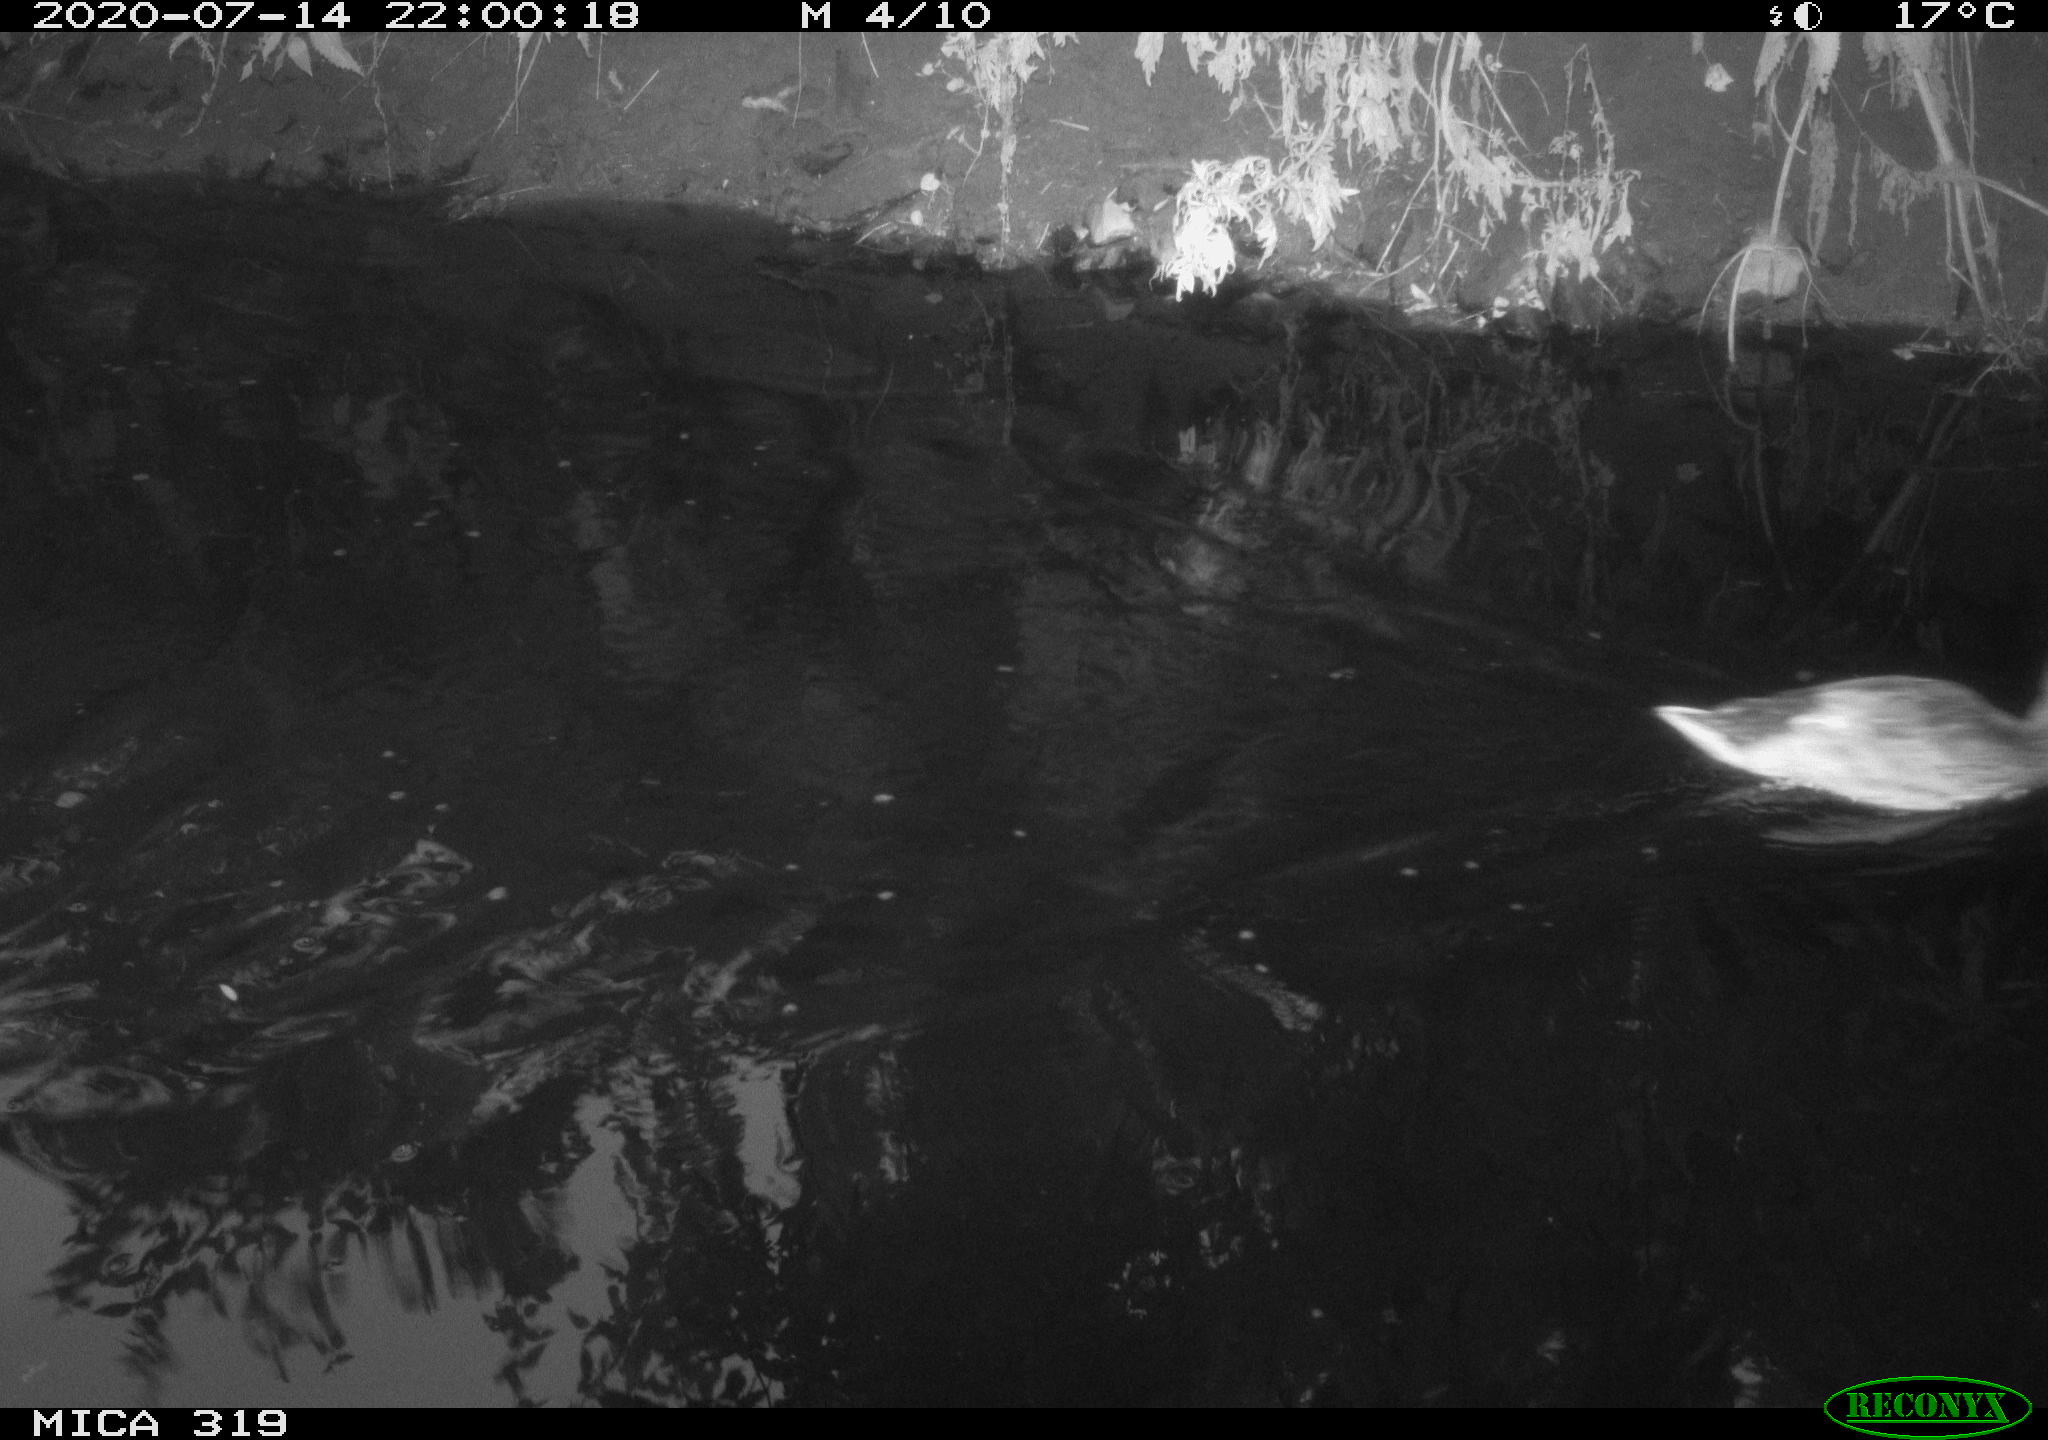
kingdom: Animalia
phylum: Chordata
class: Aves
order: Anseriformes
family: Anatidae
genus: Anas
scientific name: Anas platyrhynchos
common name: Mallard
